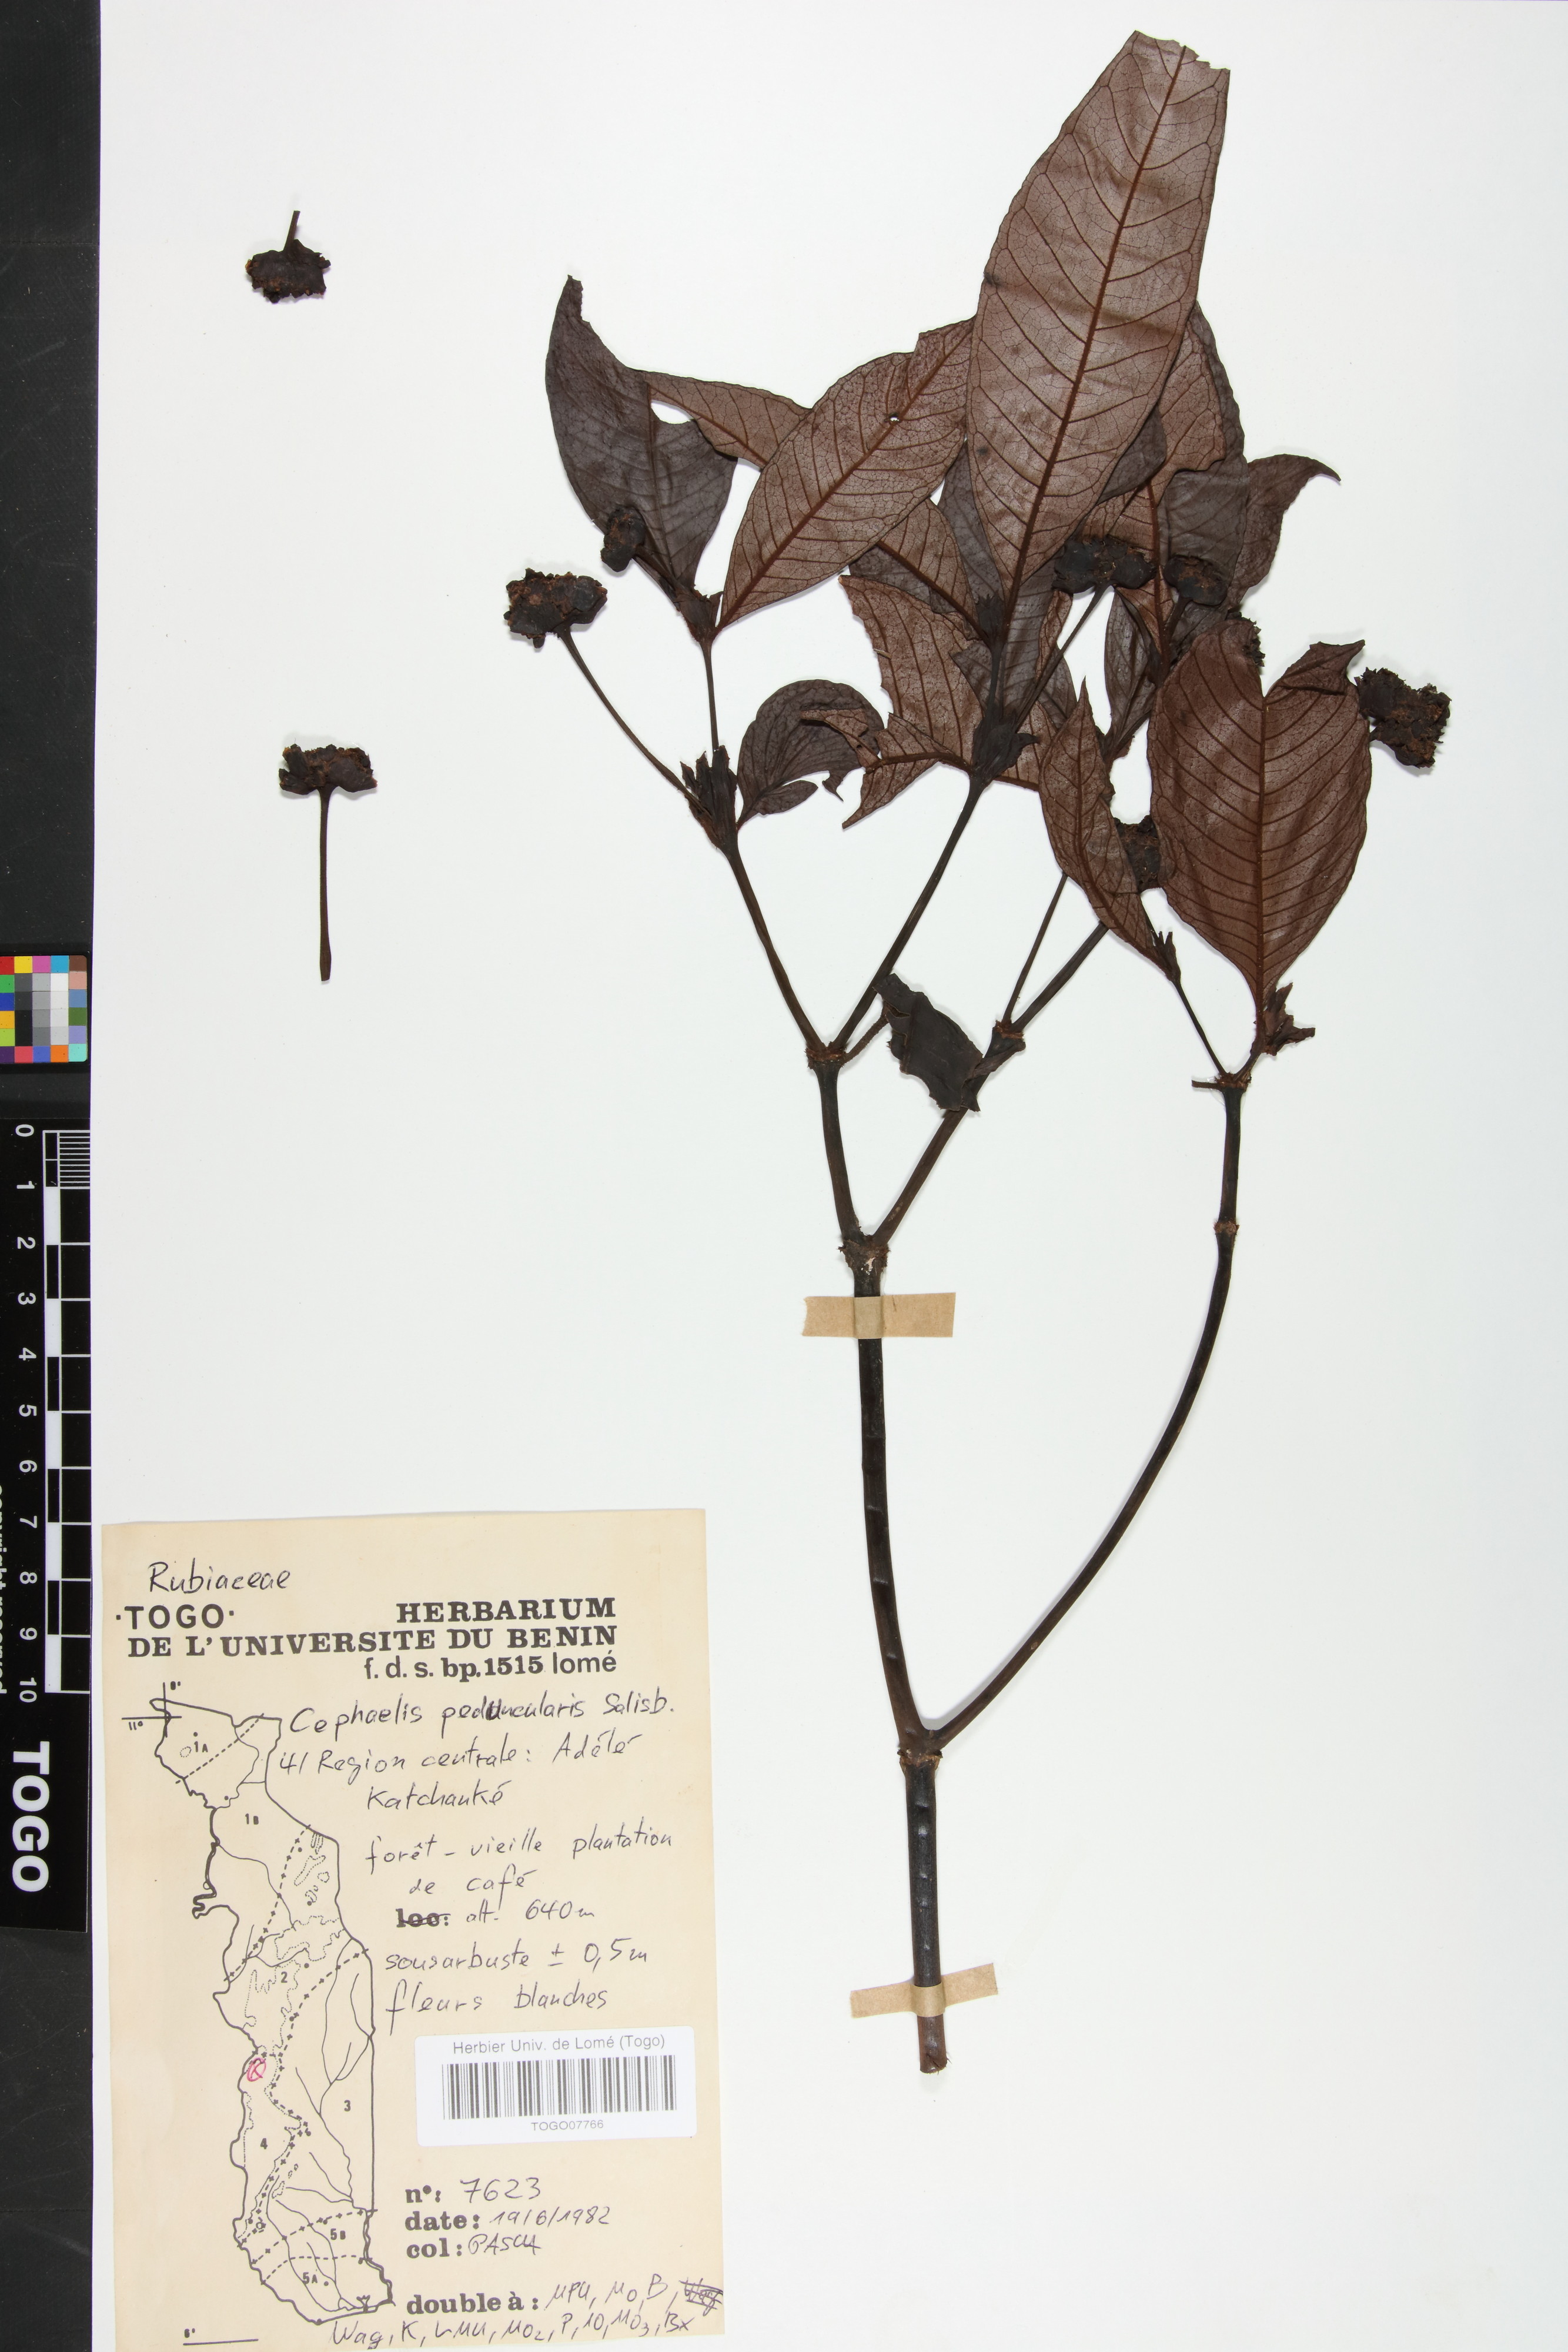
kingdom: Plantae
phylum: Tracheophyta
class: Magnoliopsida
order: Gentianales
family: Rubiaceae
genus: Psychotria
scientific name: Psychotria peduncularis
